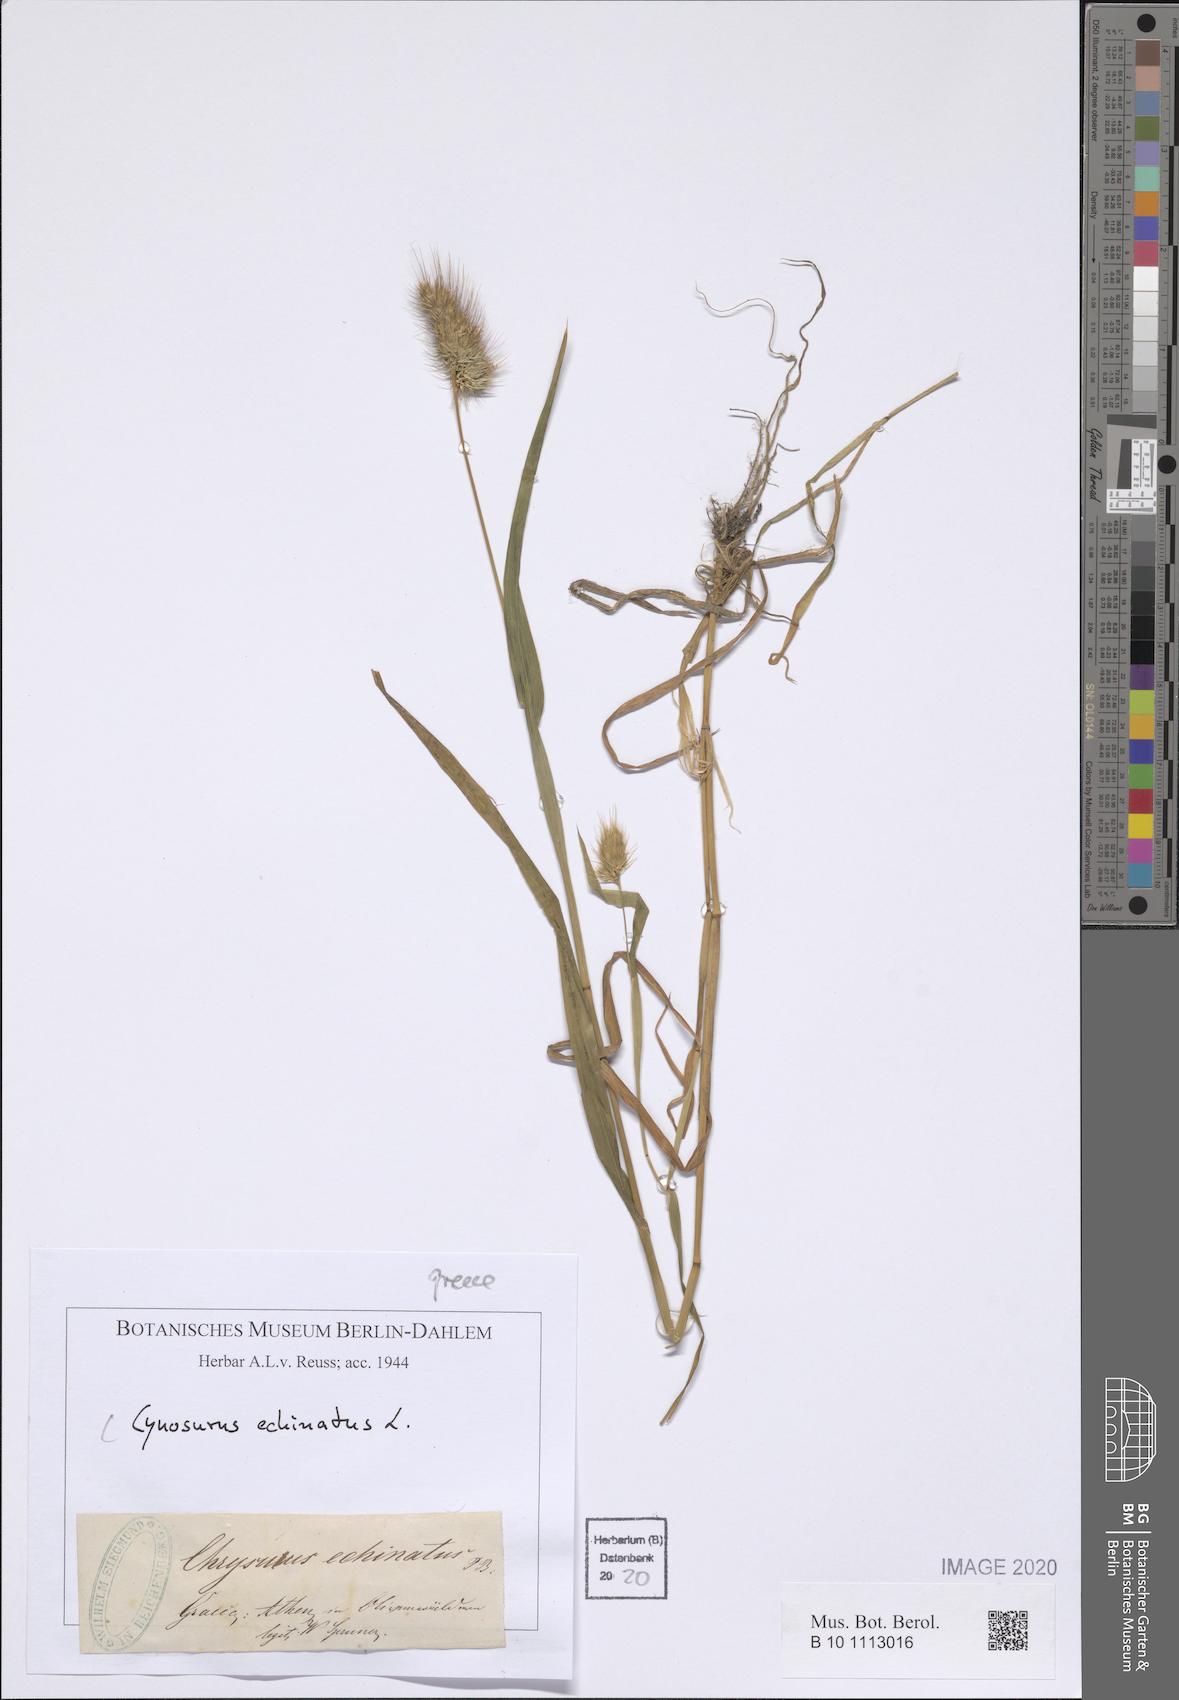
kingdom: Plantae
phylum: Tracheophyta
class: Liliopsida
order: Poales
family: Poaceae
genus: Cynosurus
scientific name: Cynosurus echinatus
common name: Rough dog's-tail
